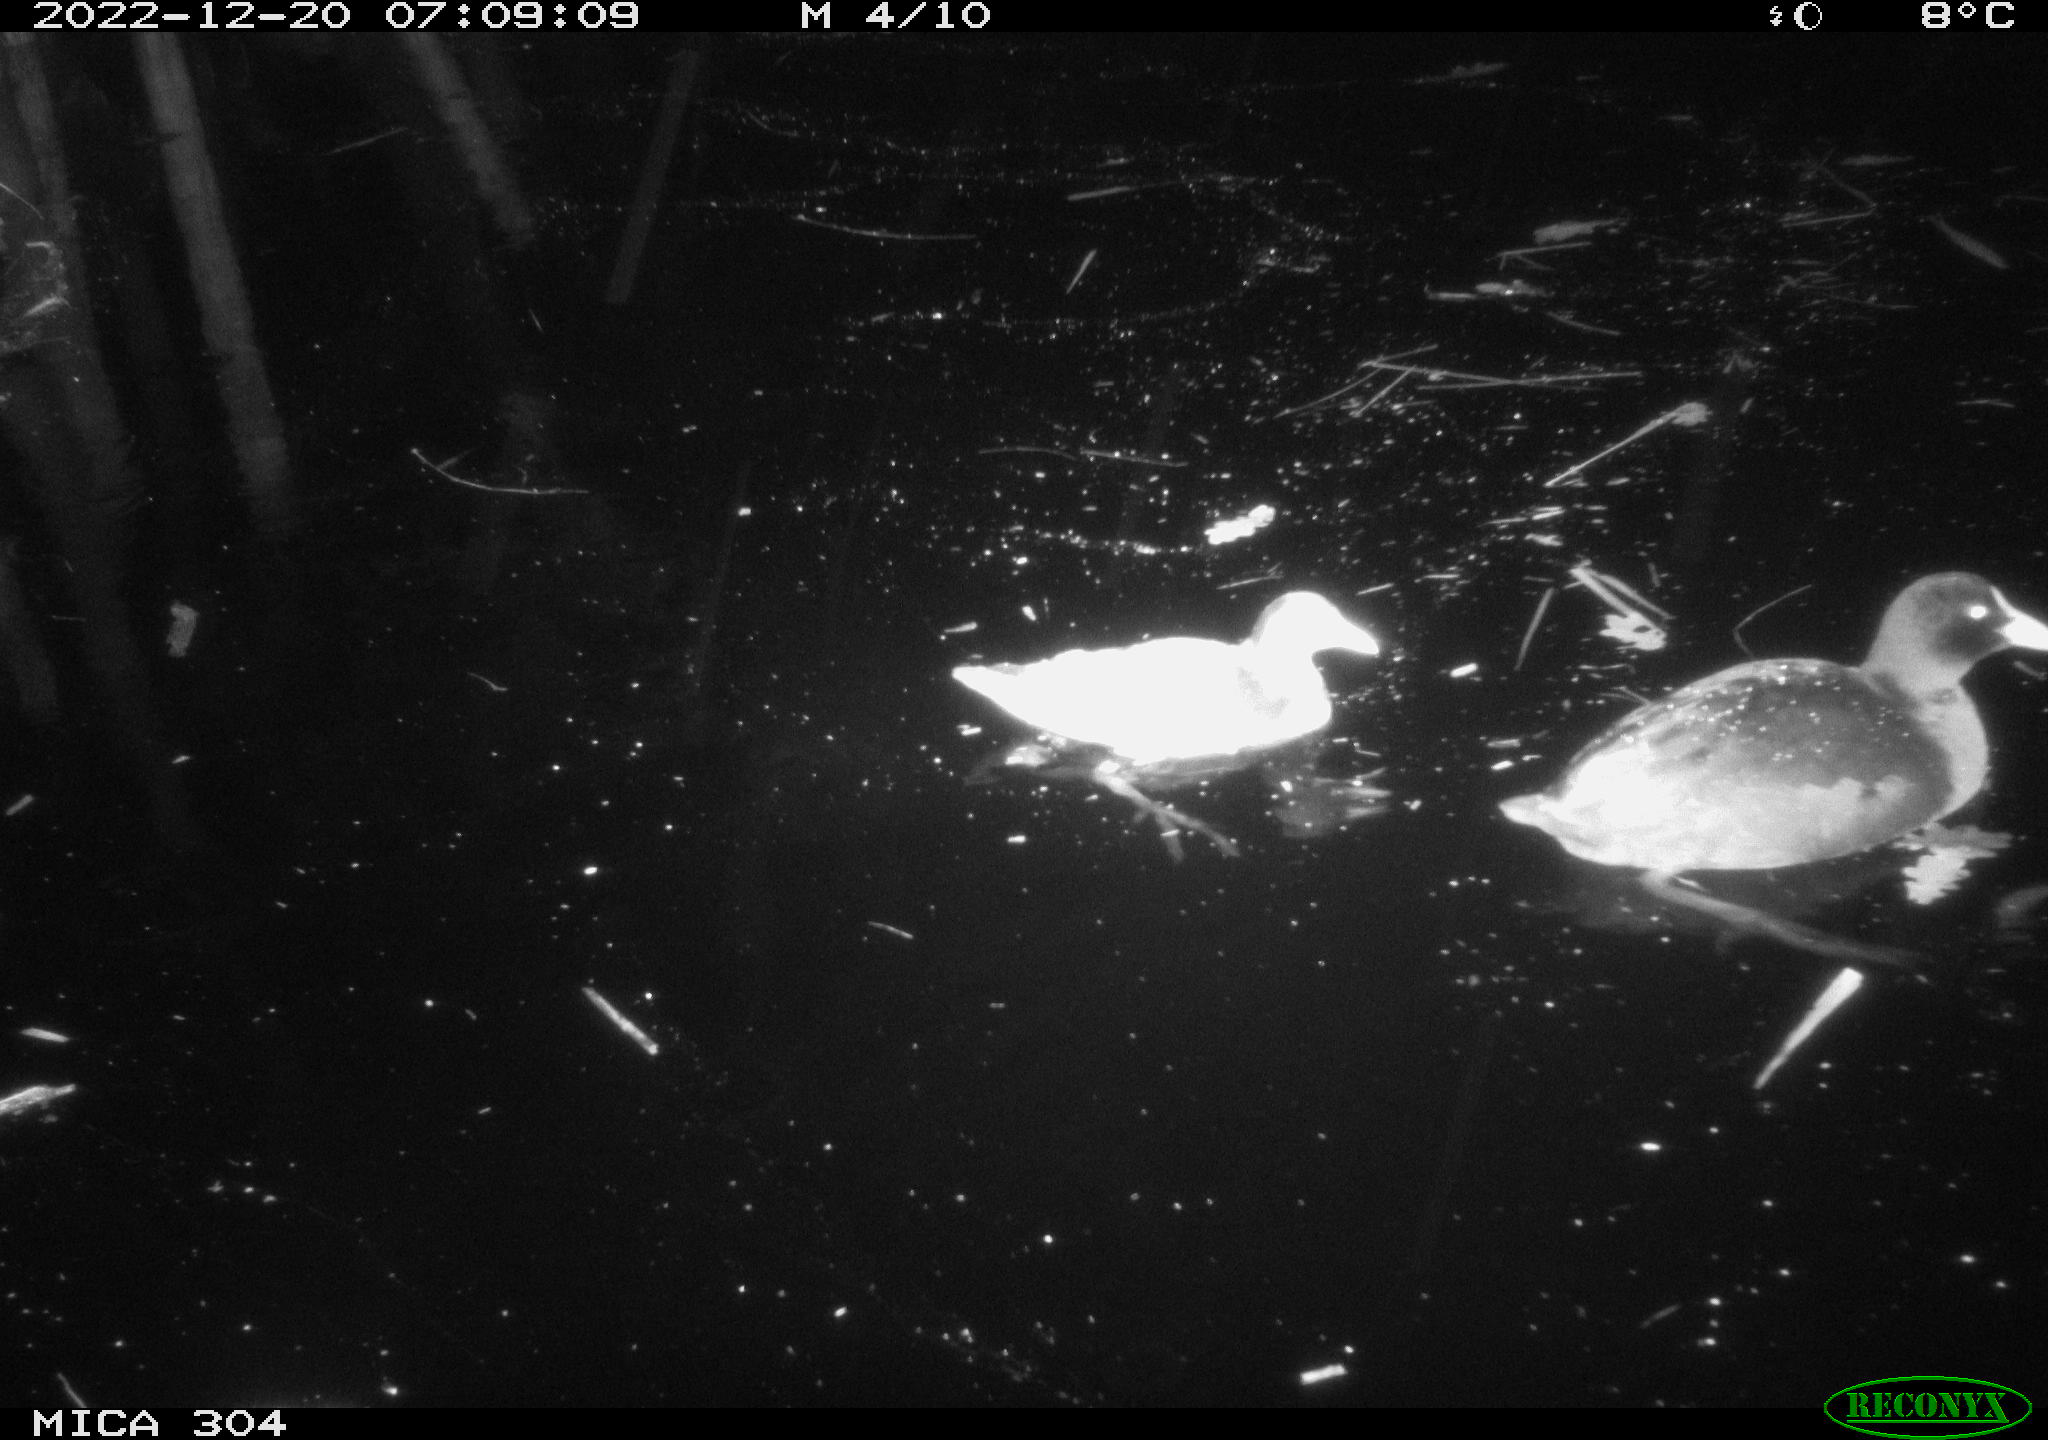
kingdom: Animalia
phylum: Chordata
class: Aves
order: Anseriformes
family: Anatidae
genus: Anas
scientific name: Anas
